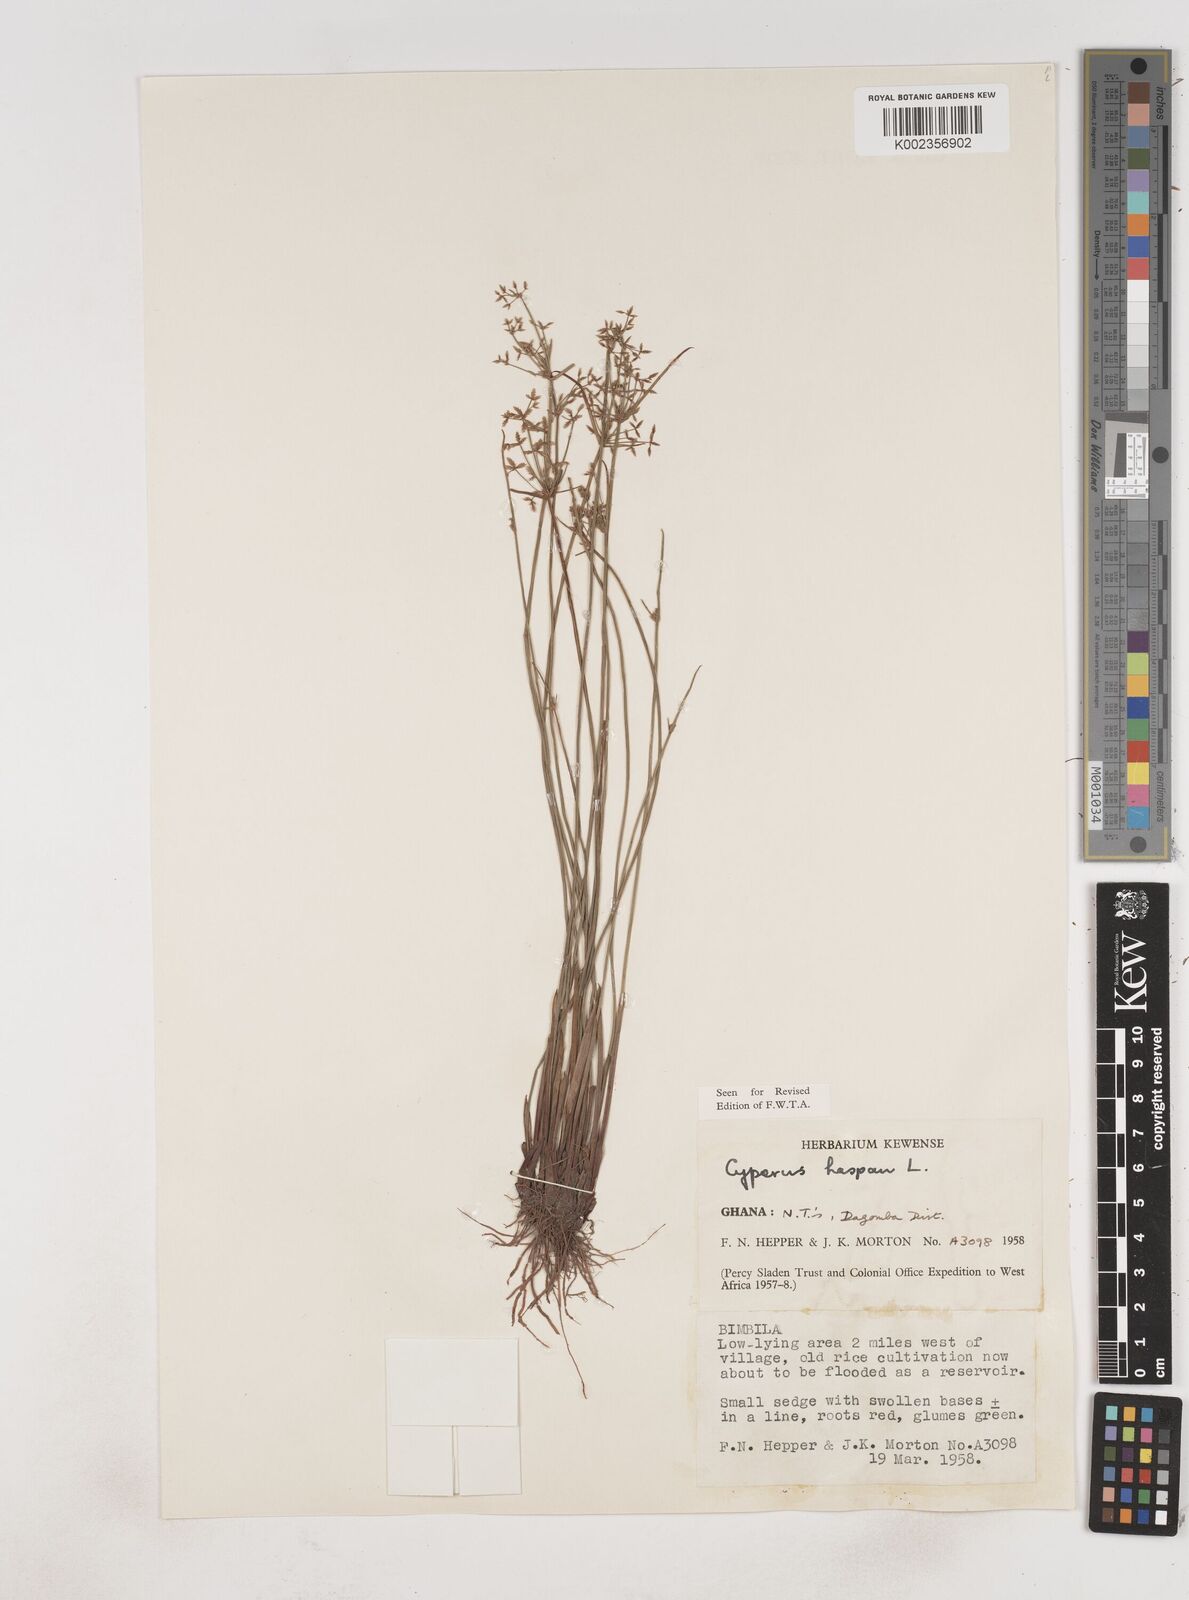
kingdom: Plantae
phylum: Tracheophyta
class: Liliopsida
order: Poales
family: Cyperaceae
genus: Cyperus
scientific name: Cyperus haspan
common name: Haspan flatsedge
